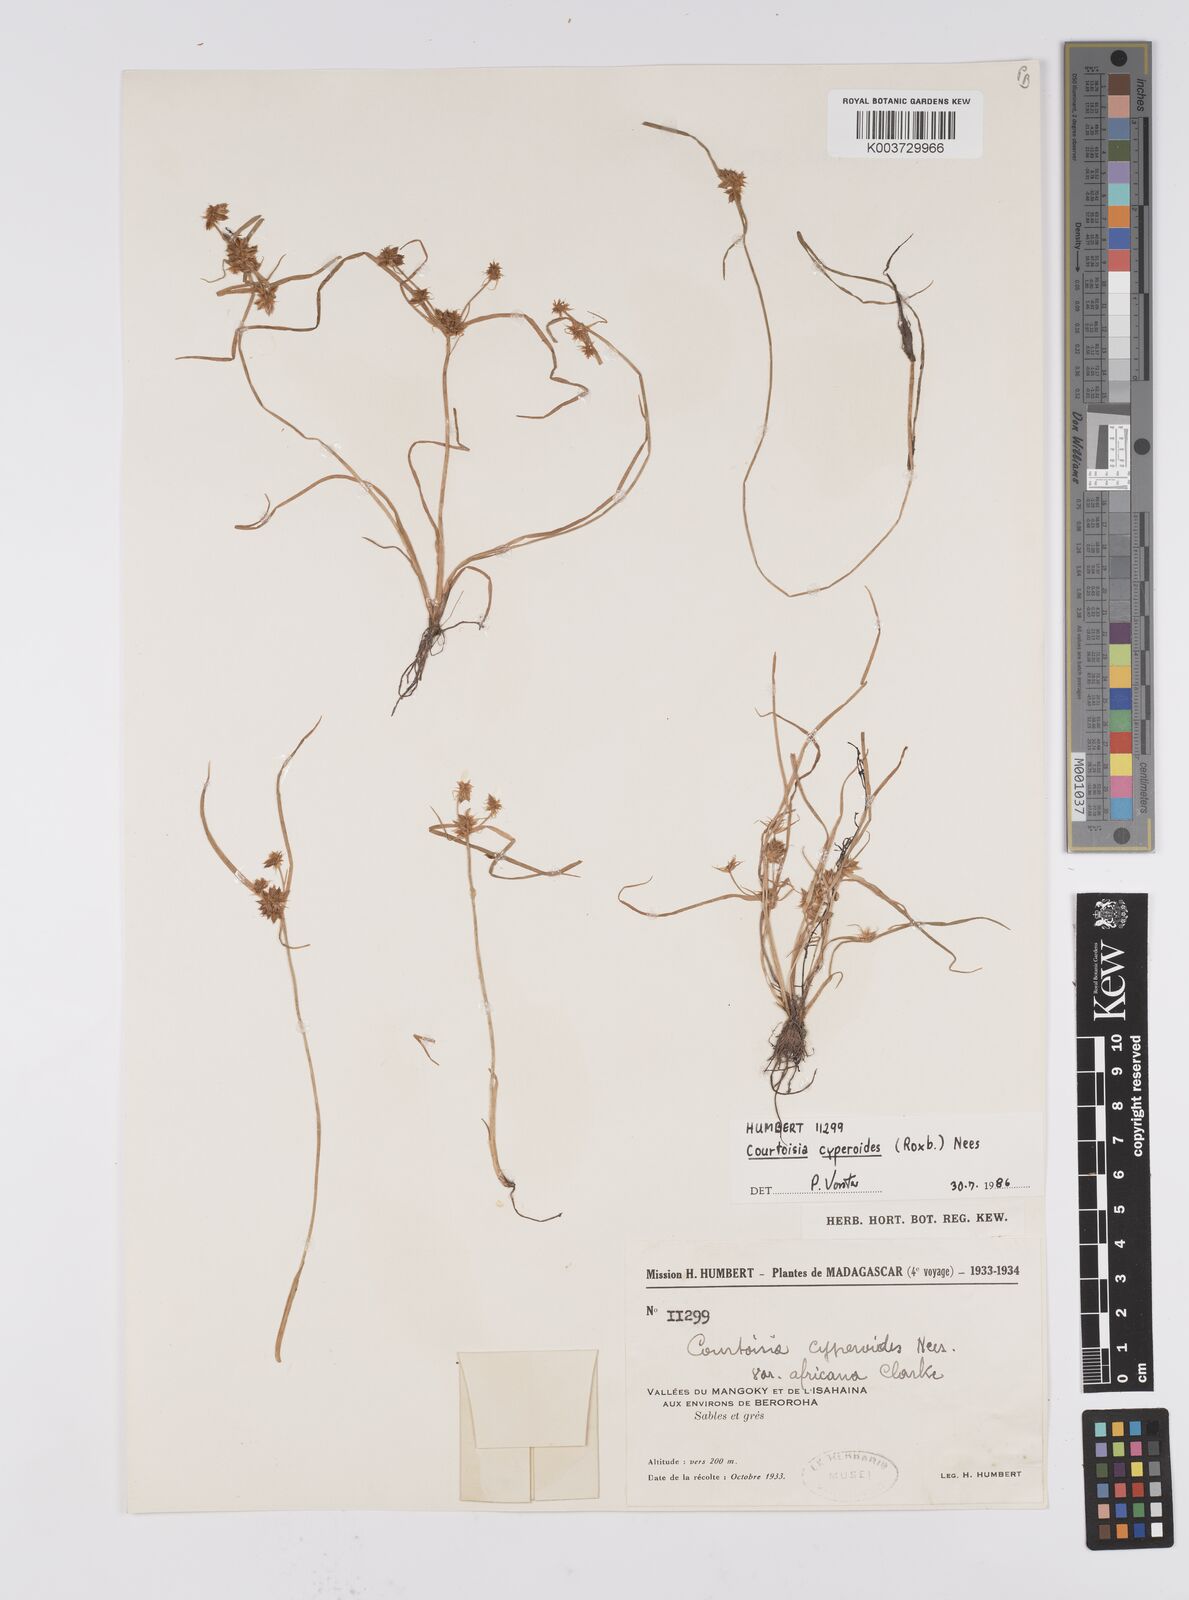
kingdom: Plantae
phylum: Tracheophyta
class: Liliopsida
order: Poales
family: Cyperaceae
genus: Cyperus
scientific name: Cyperus cyperoides
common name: Pacific island flat sedge
